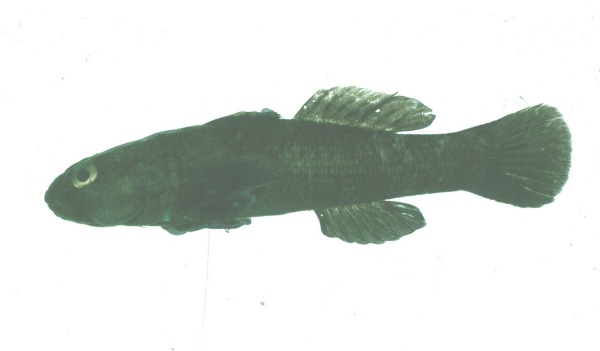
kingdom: Animalia
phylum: Chordata
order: Perciformes
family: Gobiidae
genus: Bathygobius
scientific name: Bathygobius cocosensis
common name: Cocos frillgoby
